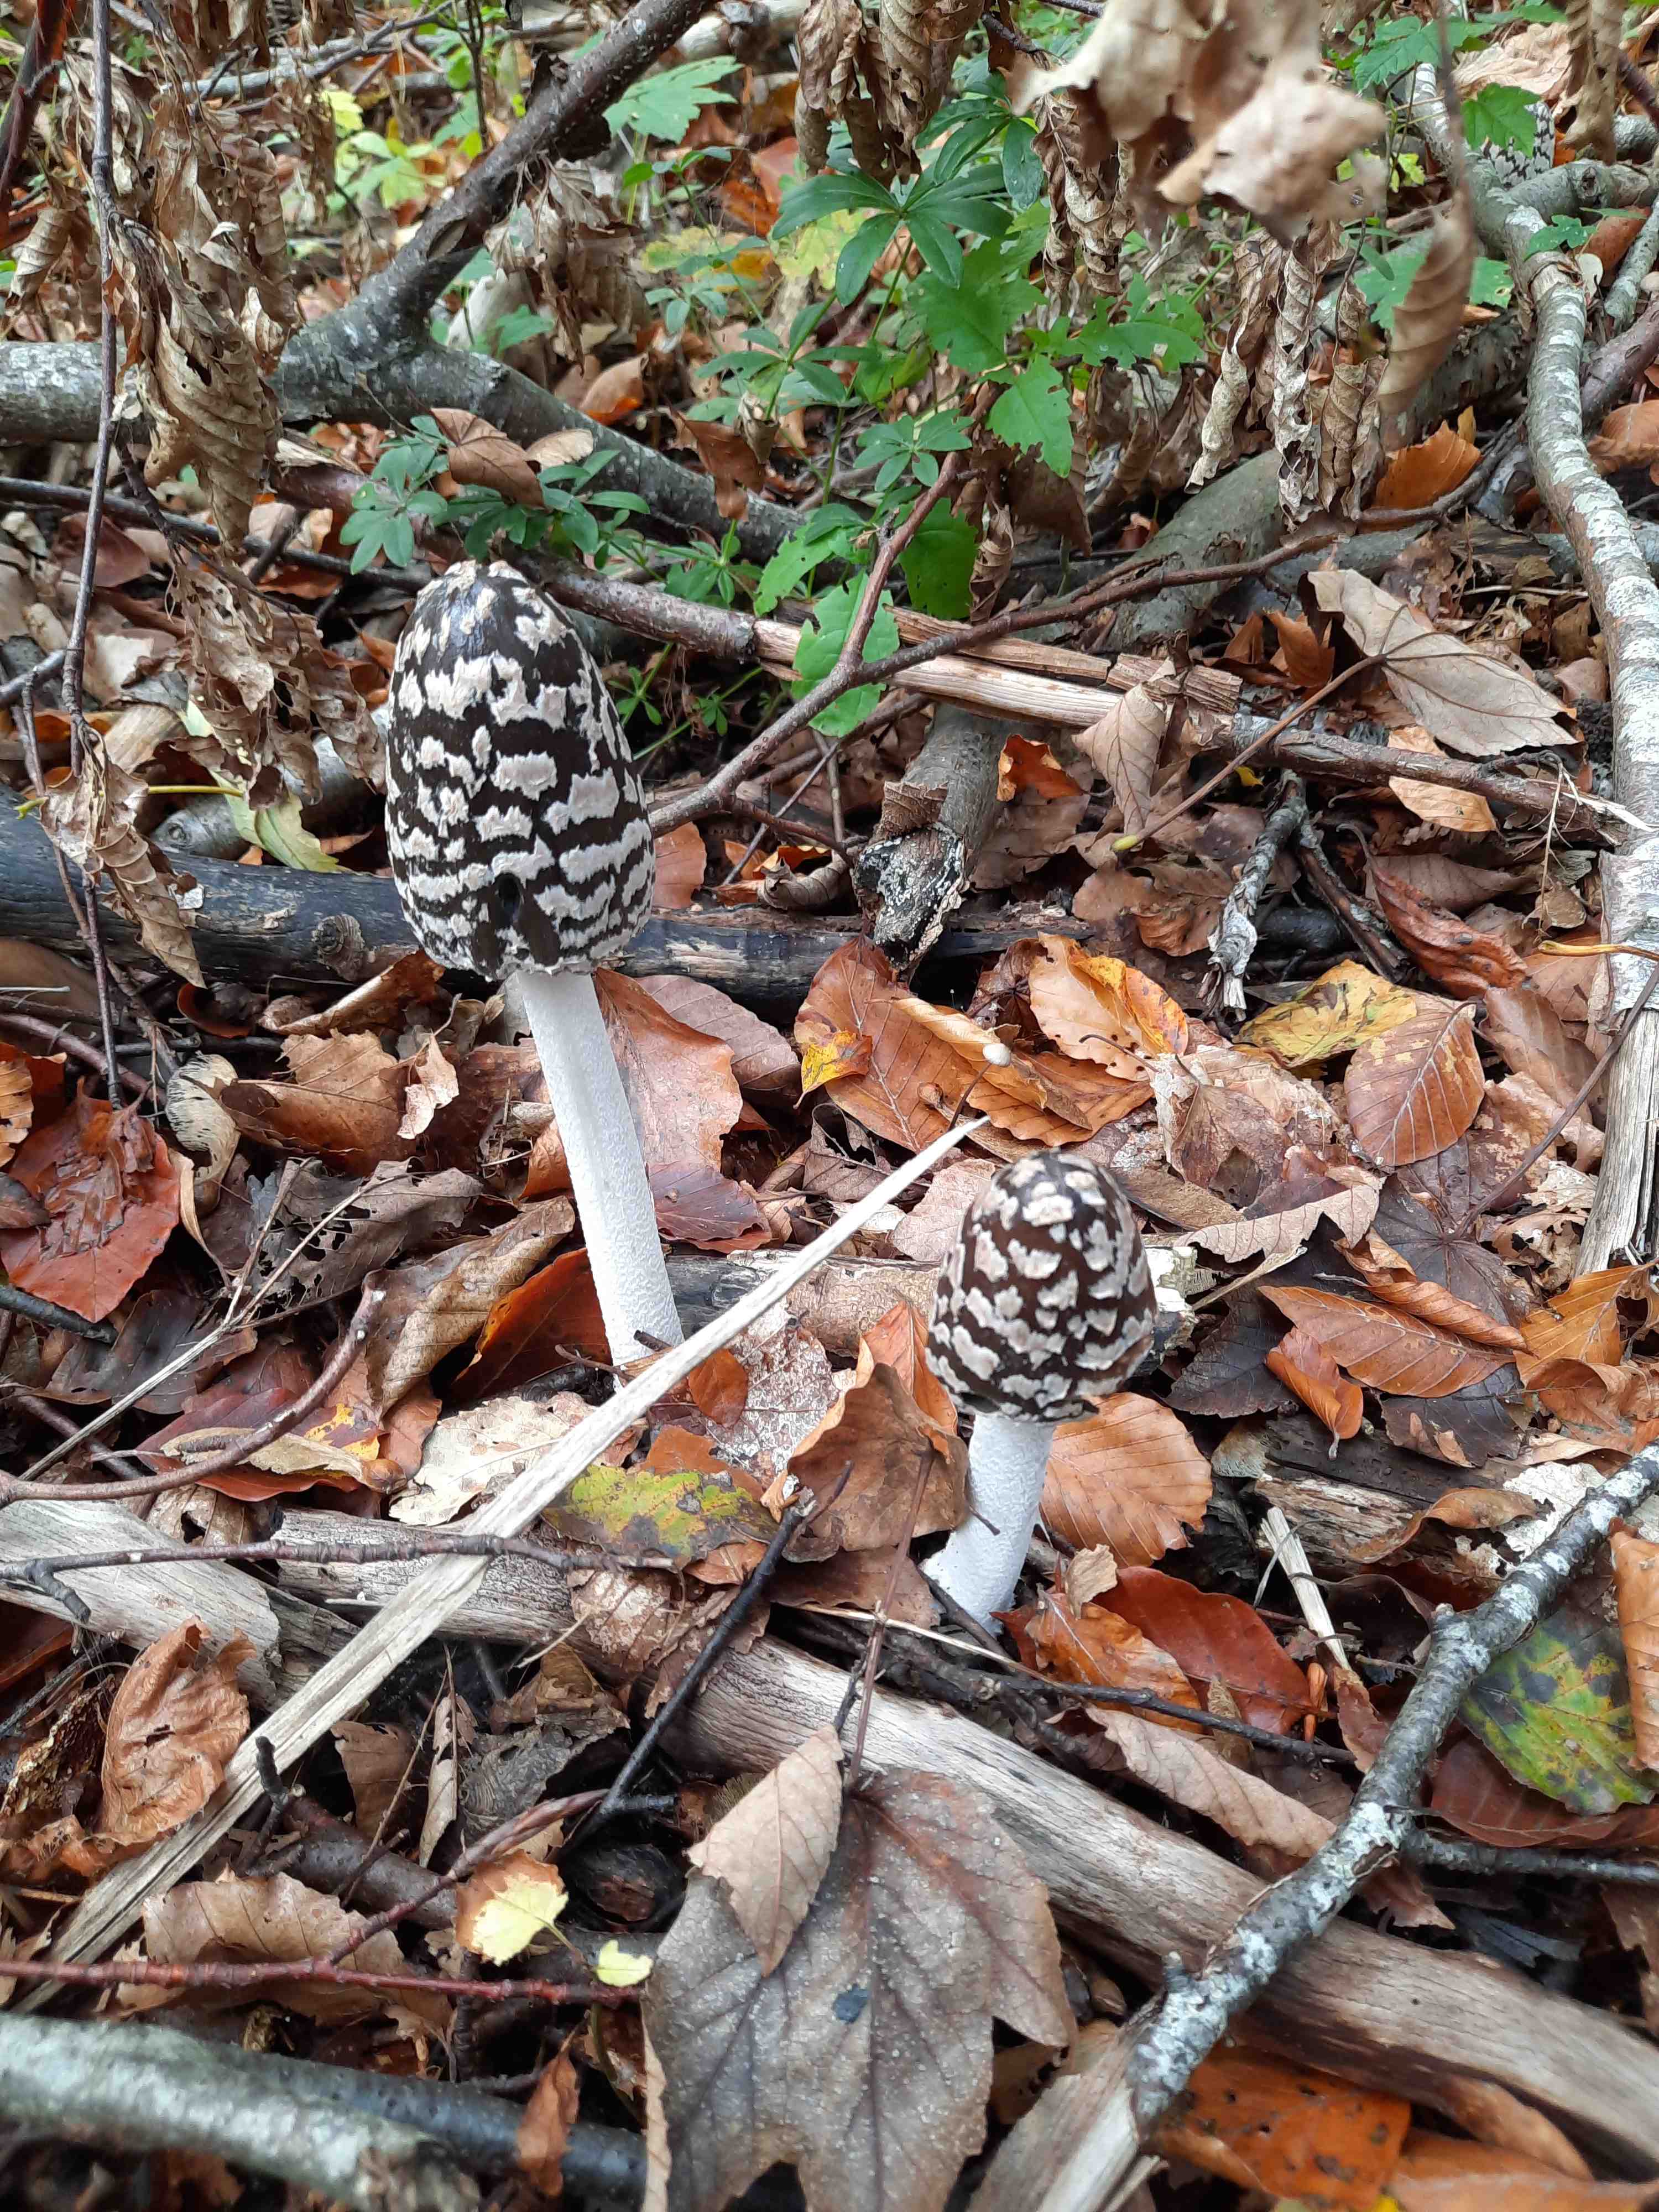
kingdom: Fungi
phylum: Basidiomycota
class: Agaricomycetes
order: Agaricales
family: Psathyrellaceae
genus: Coprinopsis
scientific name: Coprinopsis picacea
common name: skade-blækhat
